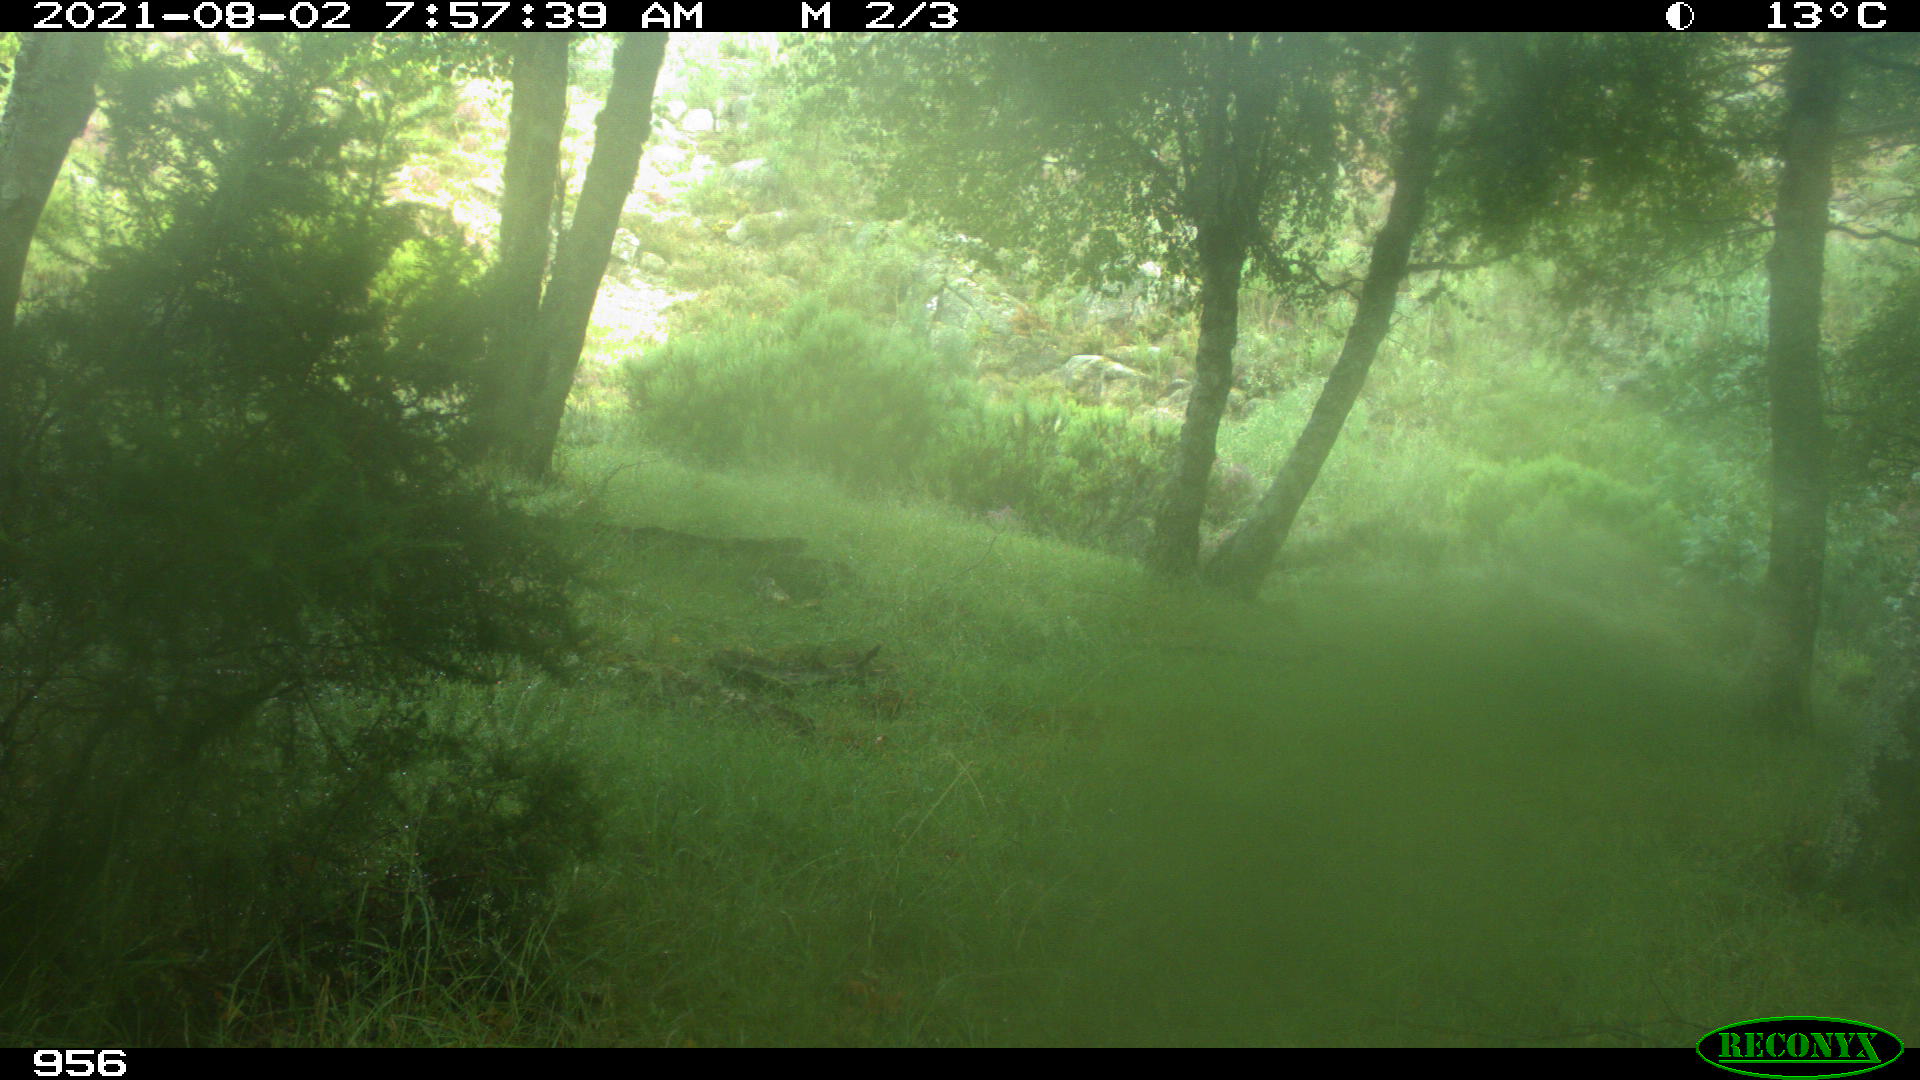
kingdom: Animalia
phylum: Chordata
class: Mammalia
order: Artiodactyla
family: Cervidae
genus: Capreolus
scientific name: Capreolus capreolus
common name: Western roe deer
